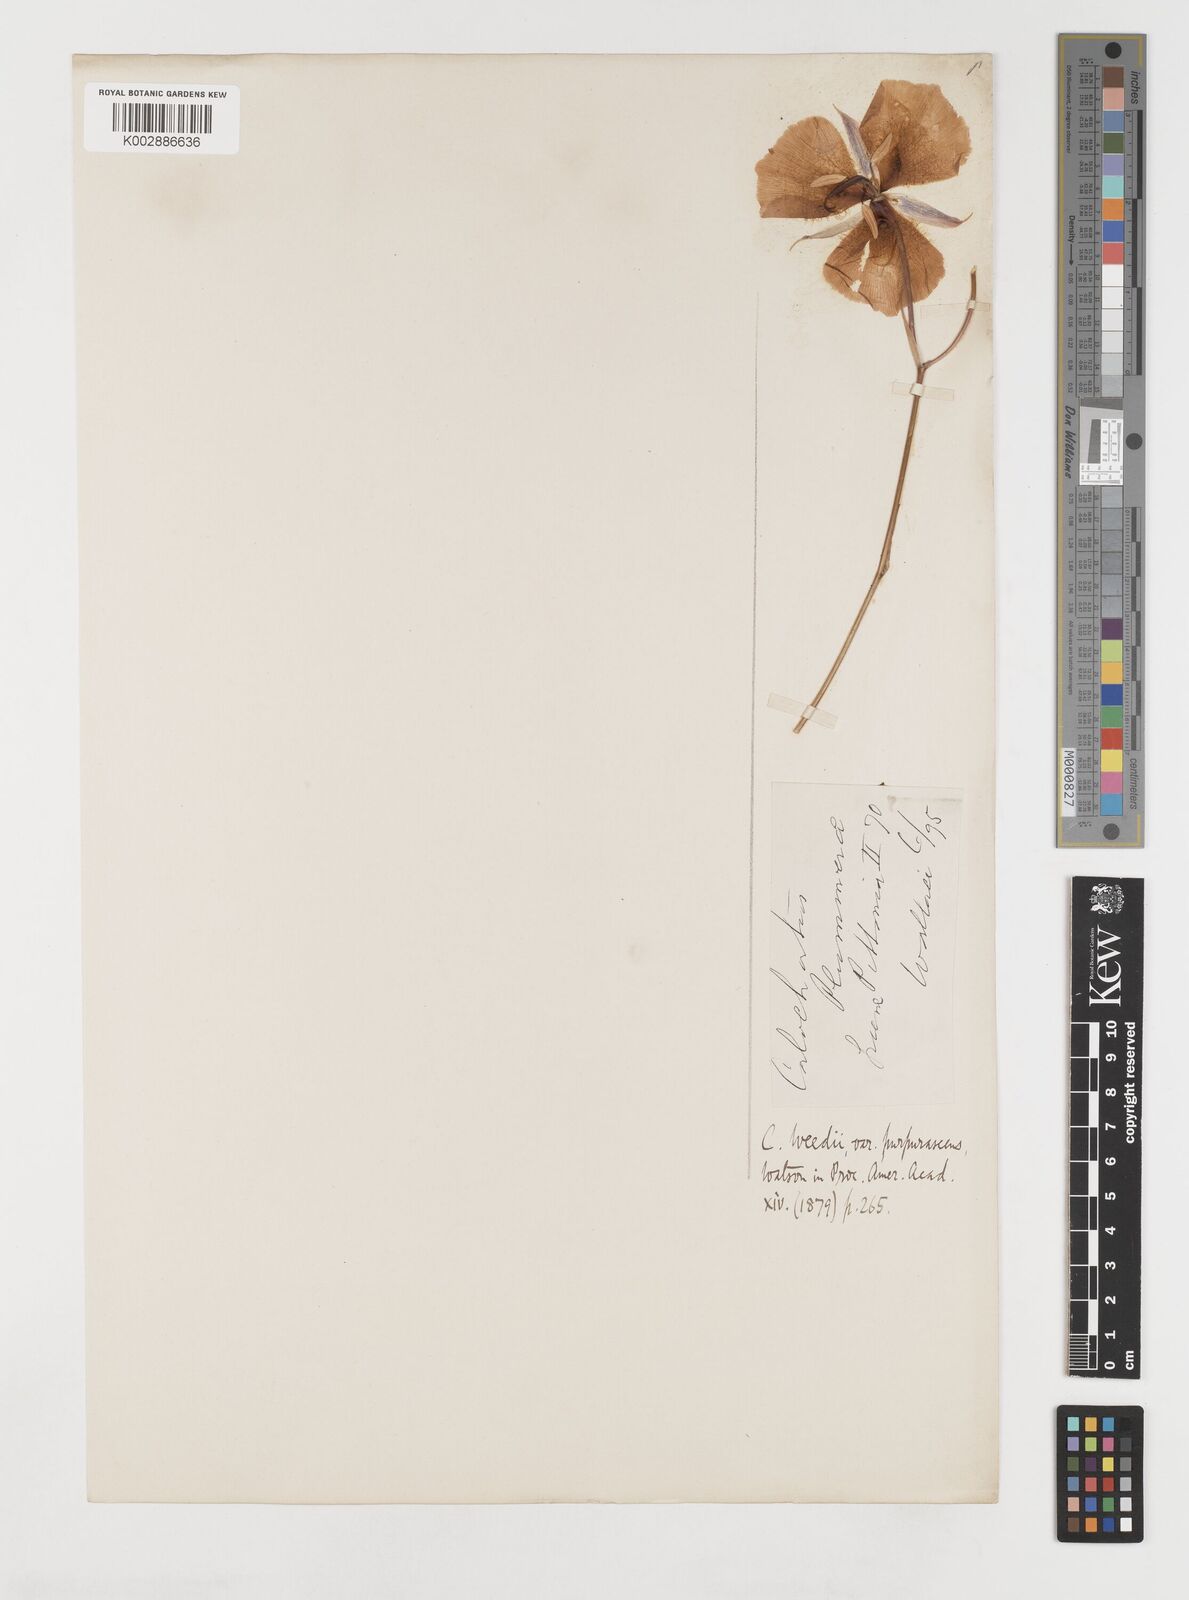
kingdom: Plantae
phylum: Tracheophyta
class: Liliopsida
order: Liliales
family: Liliaceae
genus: Calochortus
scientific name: Calochortus plummerae
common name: Plummer's mariposa-lily
